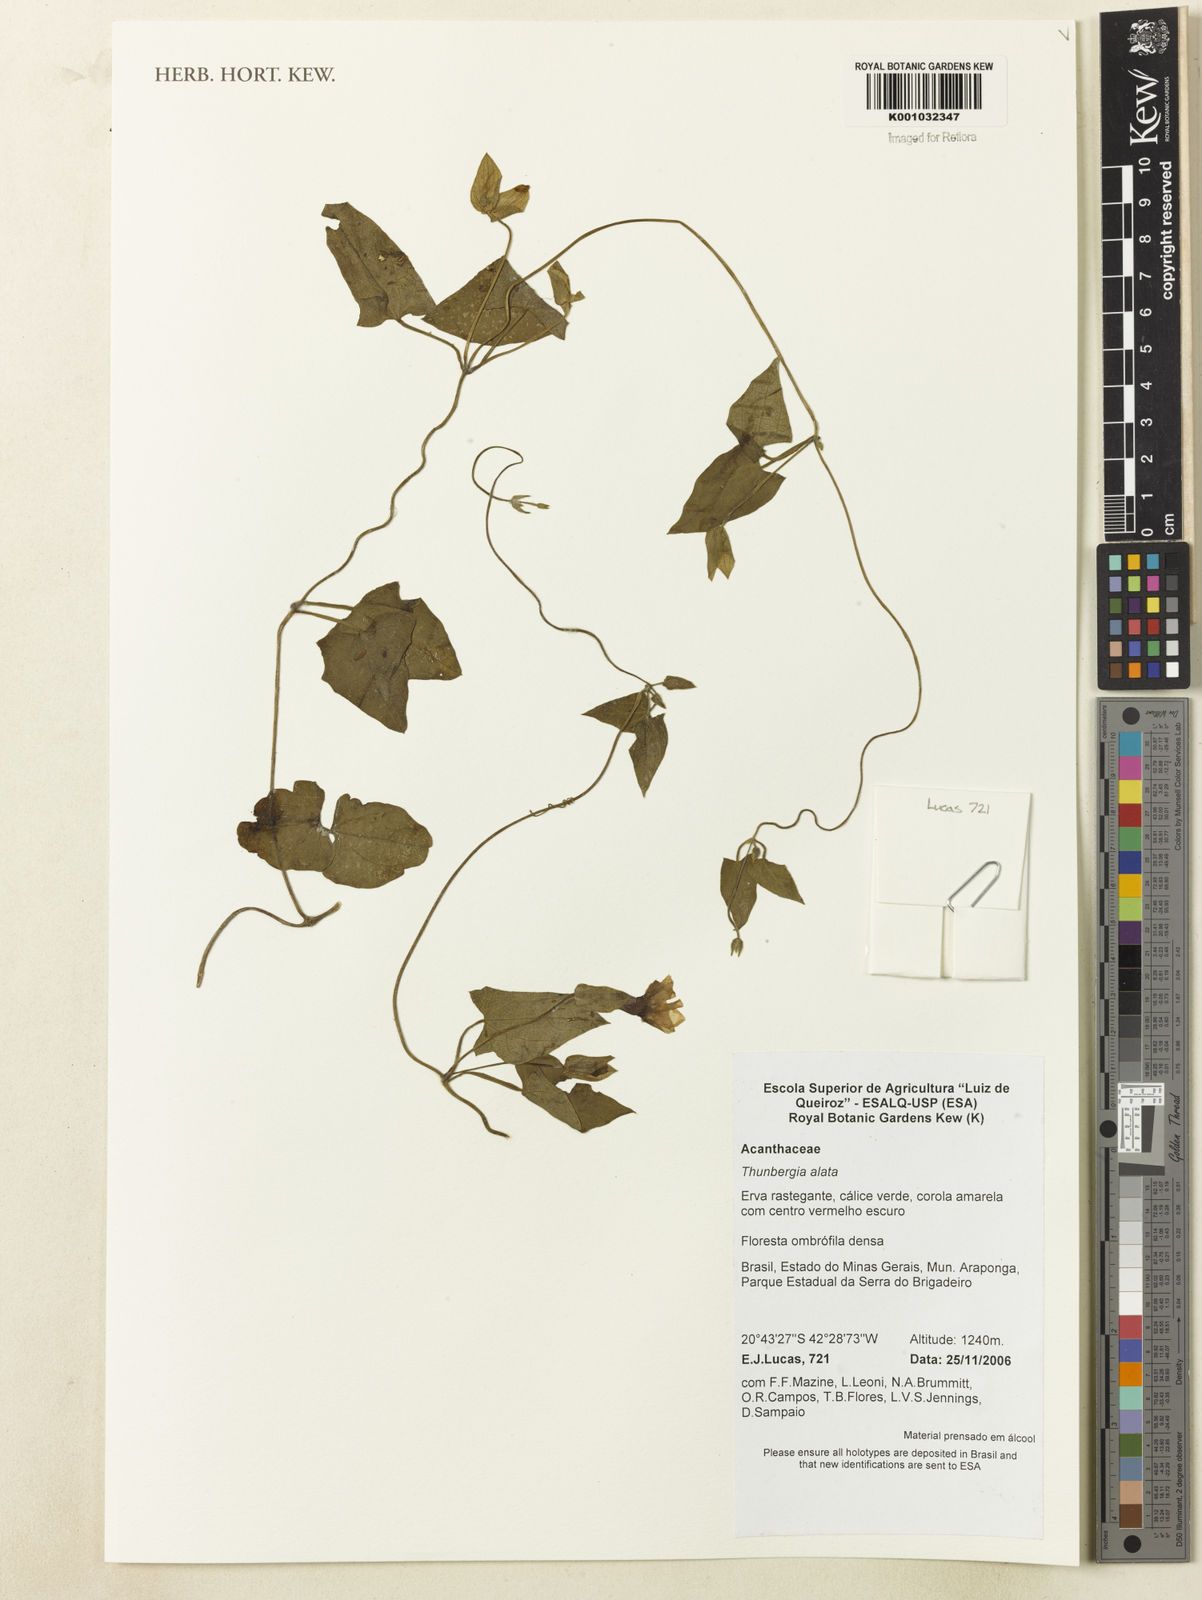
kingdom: Plantae
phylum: Tracheophyta
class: Magnoliopsida
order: Lamiales
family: Acanthaceae
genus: Thunbergia
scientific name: Thunbergia alata
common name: Blackeyed susan vine
